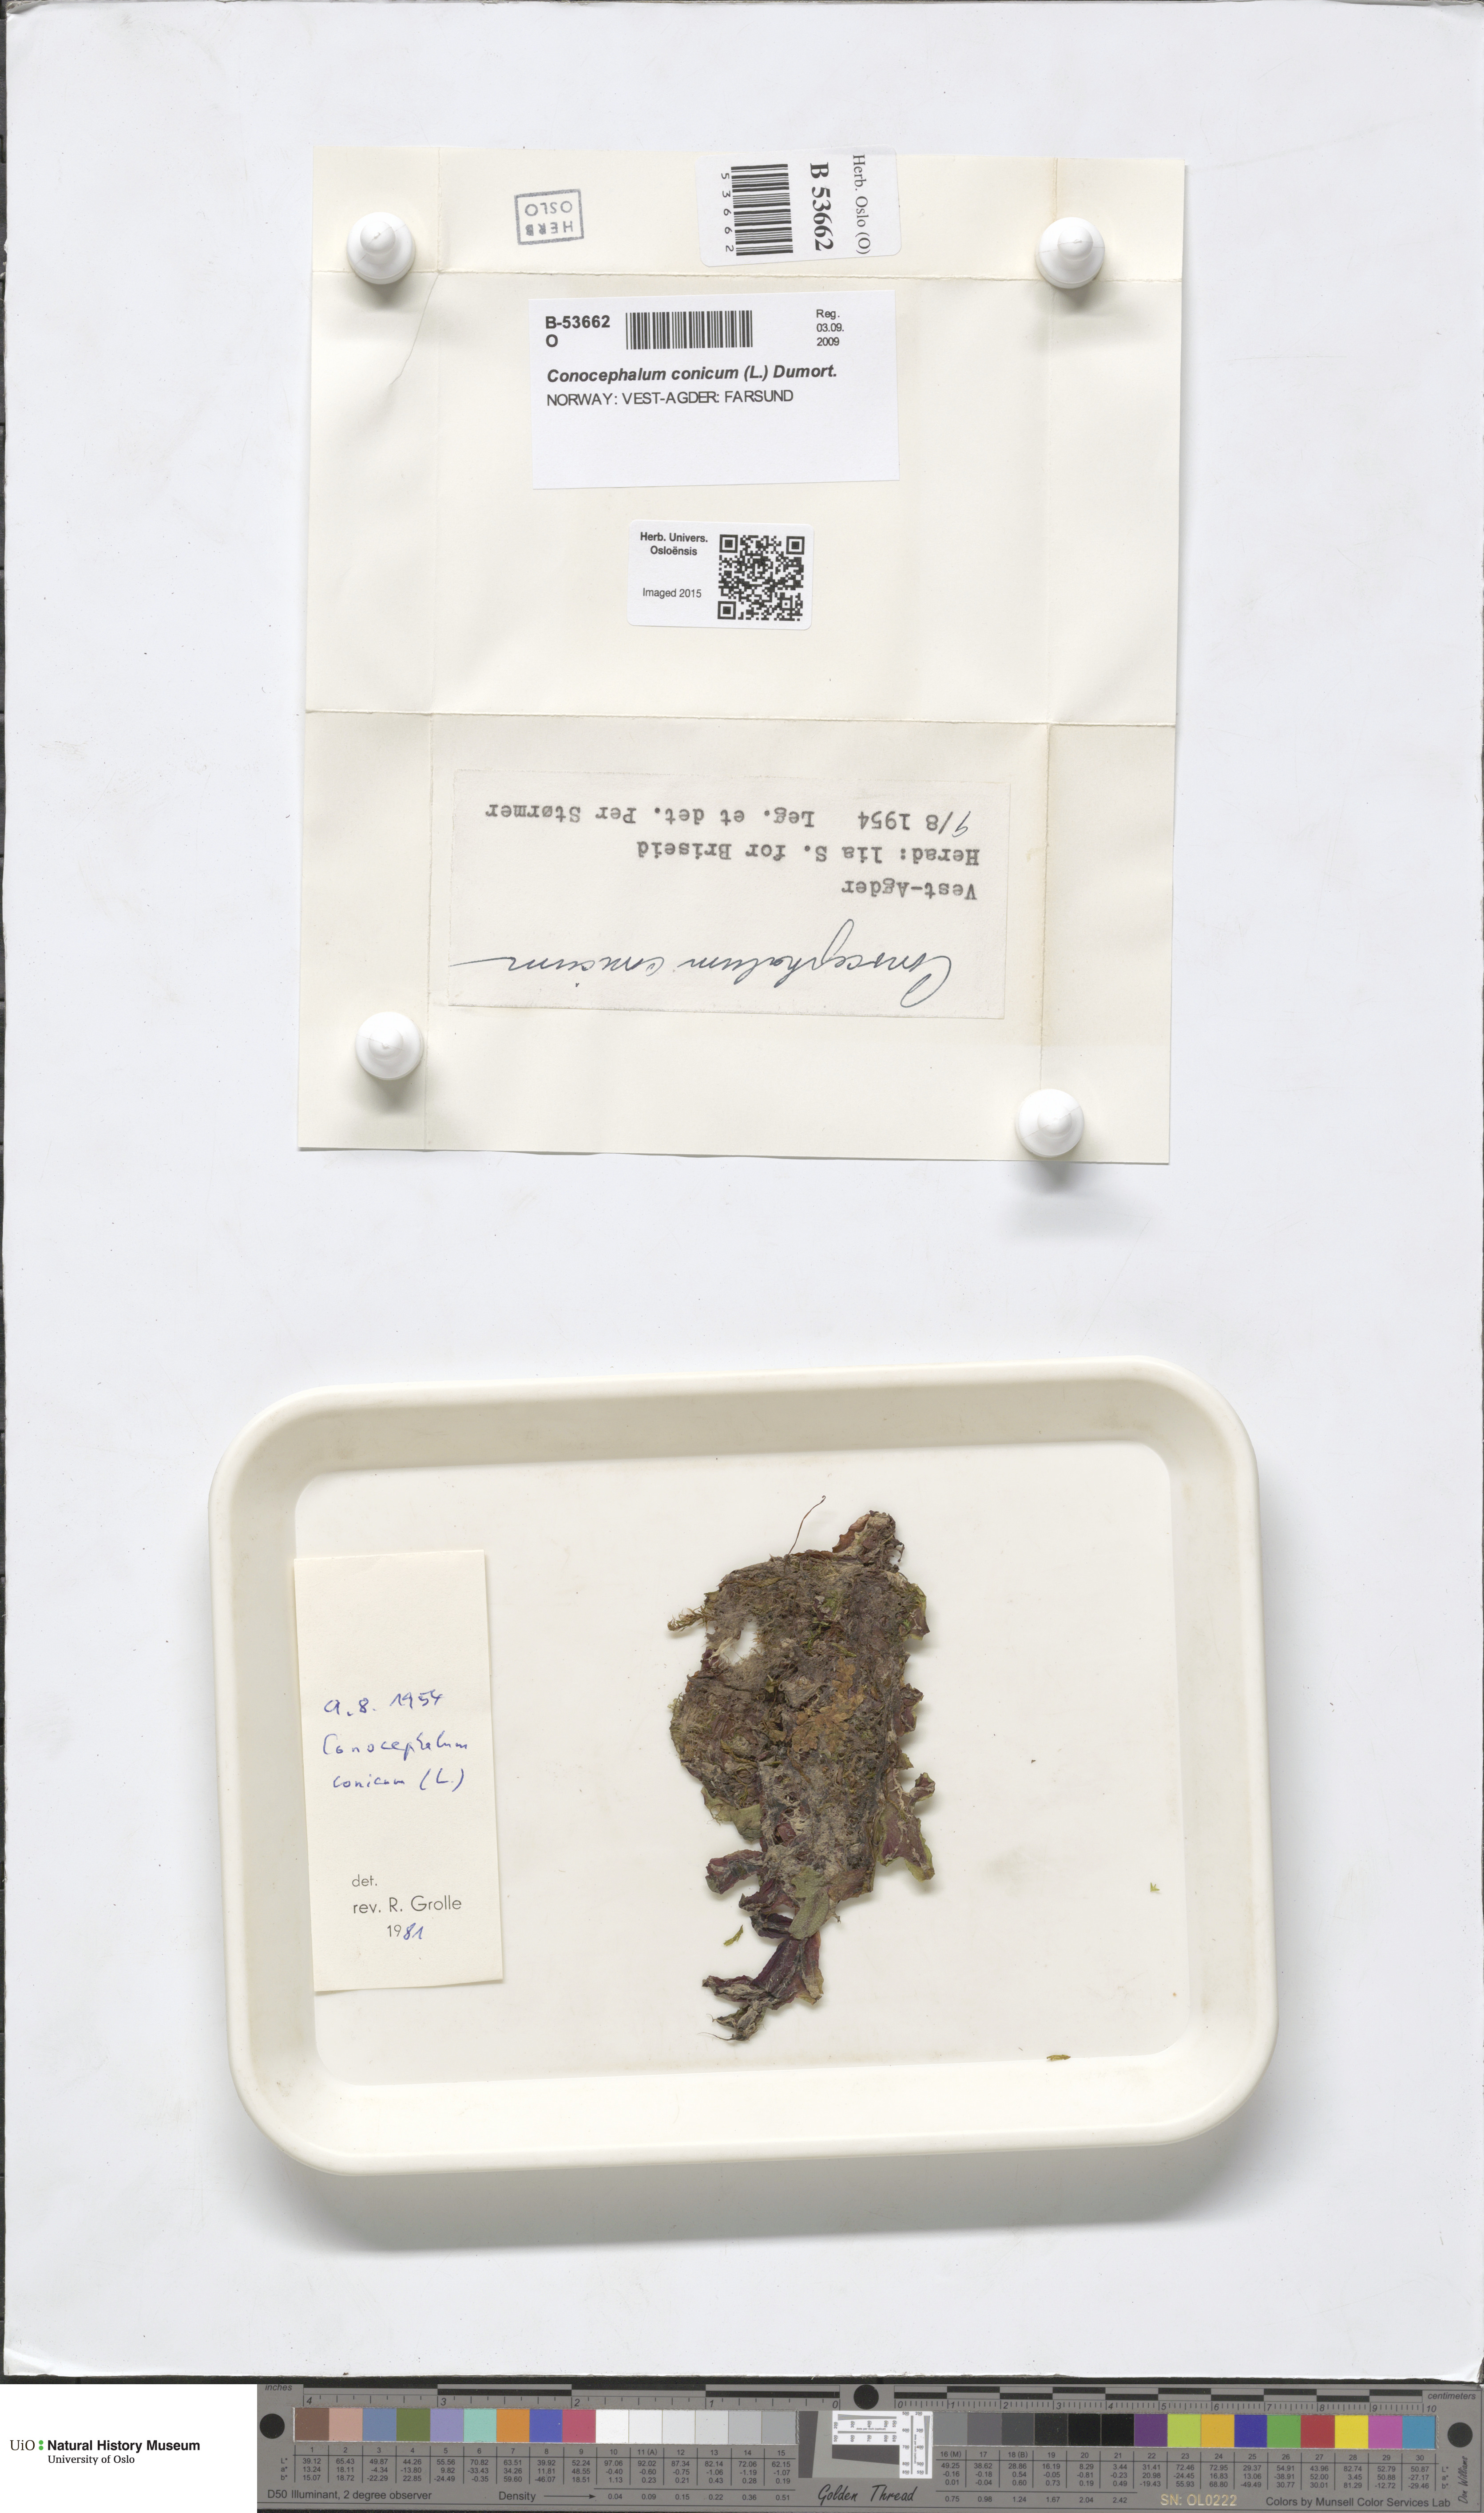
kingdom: Plantae
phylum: Marchantiophyta
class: Marchantiopsida
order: Marchantiales
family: Conocephalaceae
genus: Conocephalum
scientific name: Conocephalum conicum
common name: Great scented liverwort
